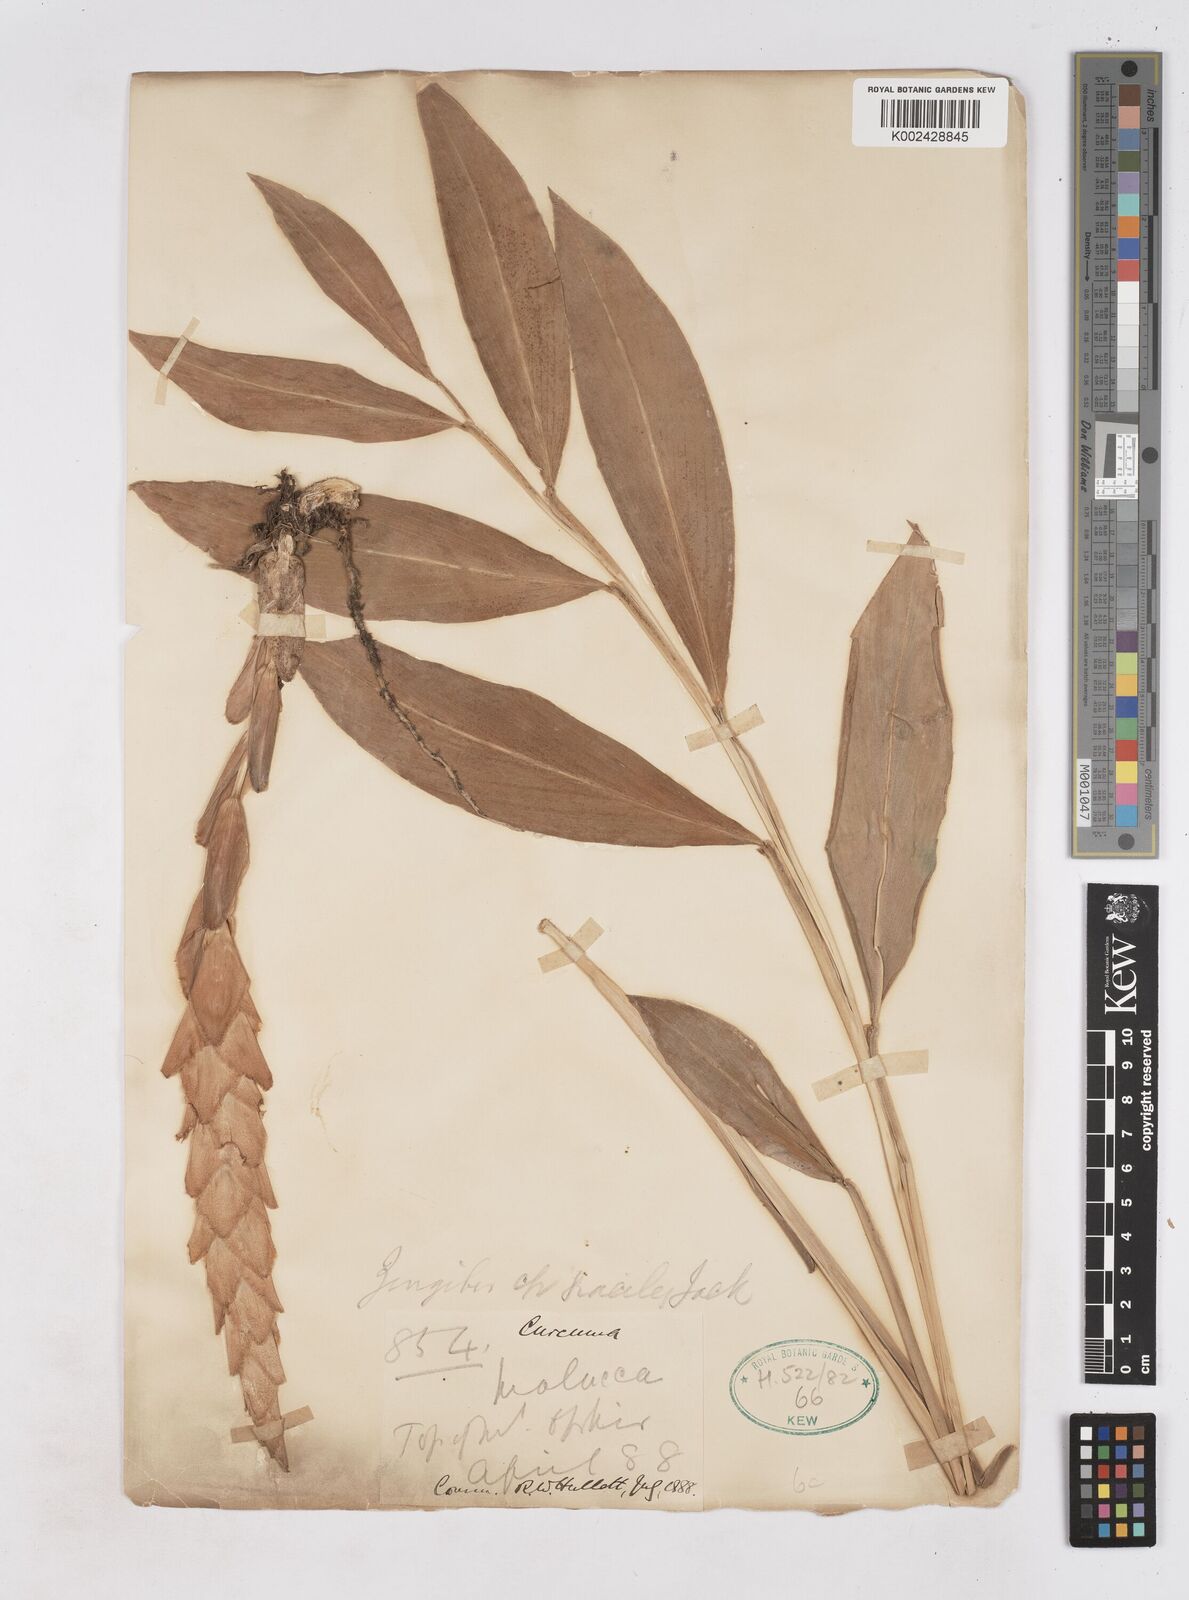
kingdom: Plantae
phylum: Tracheophyta
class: Liliopsida
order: Zingiberales
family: Zingiberaceae
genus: Zingiber
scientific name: Zingiber gracile
